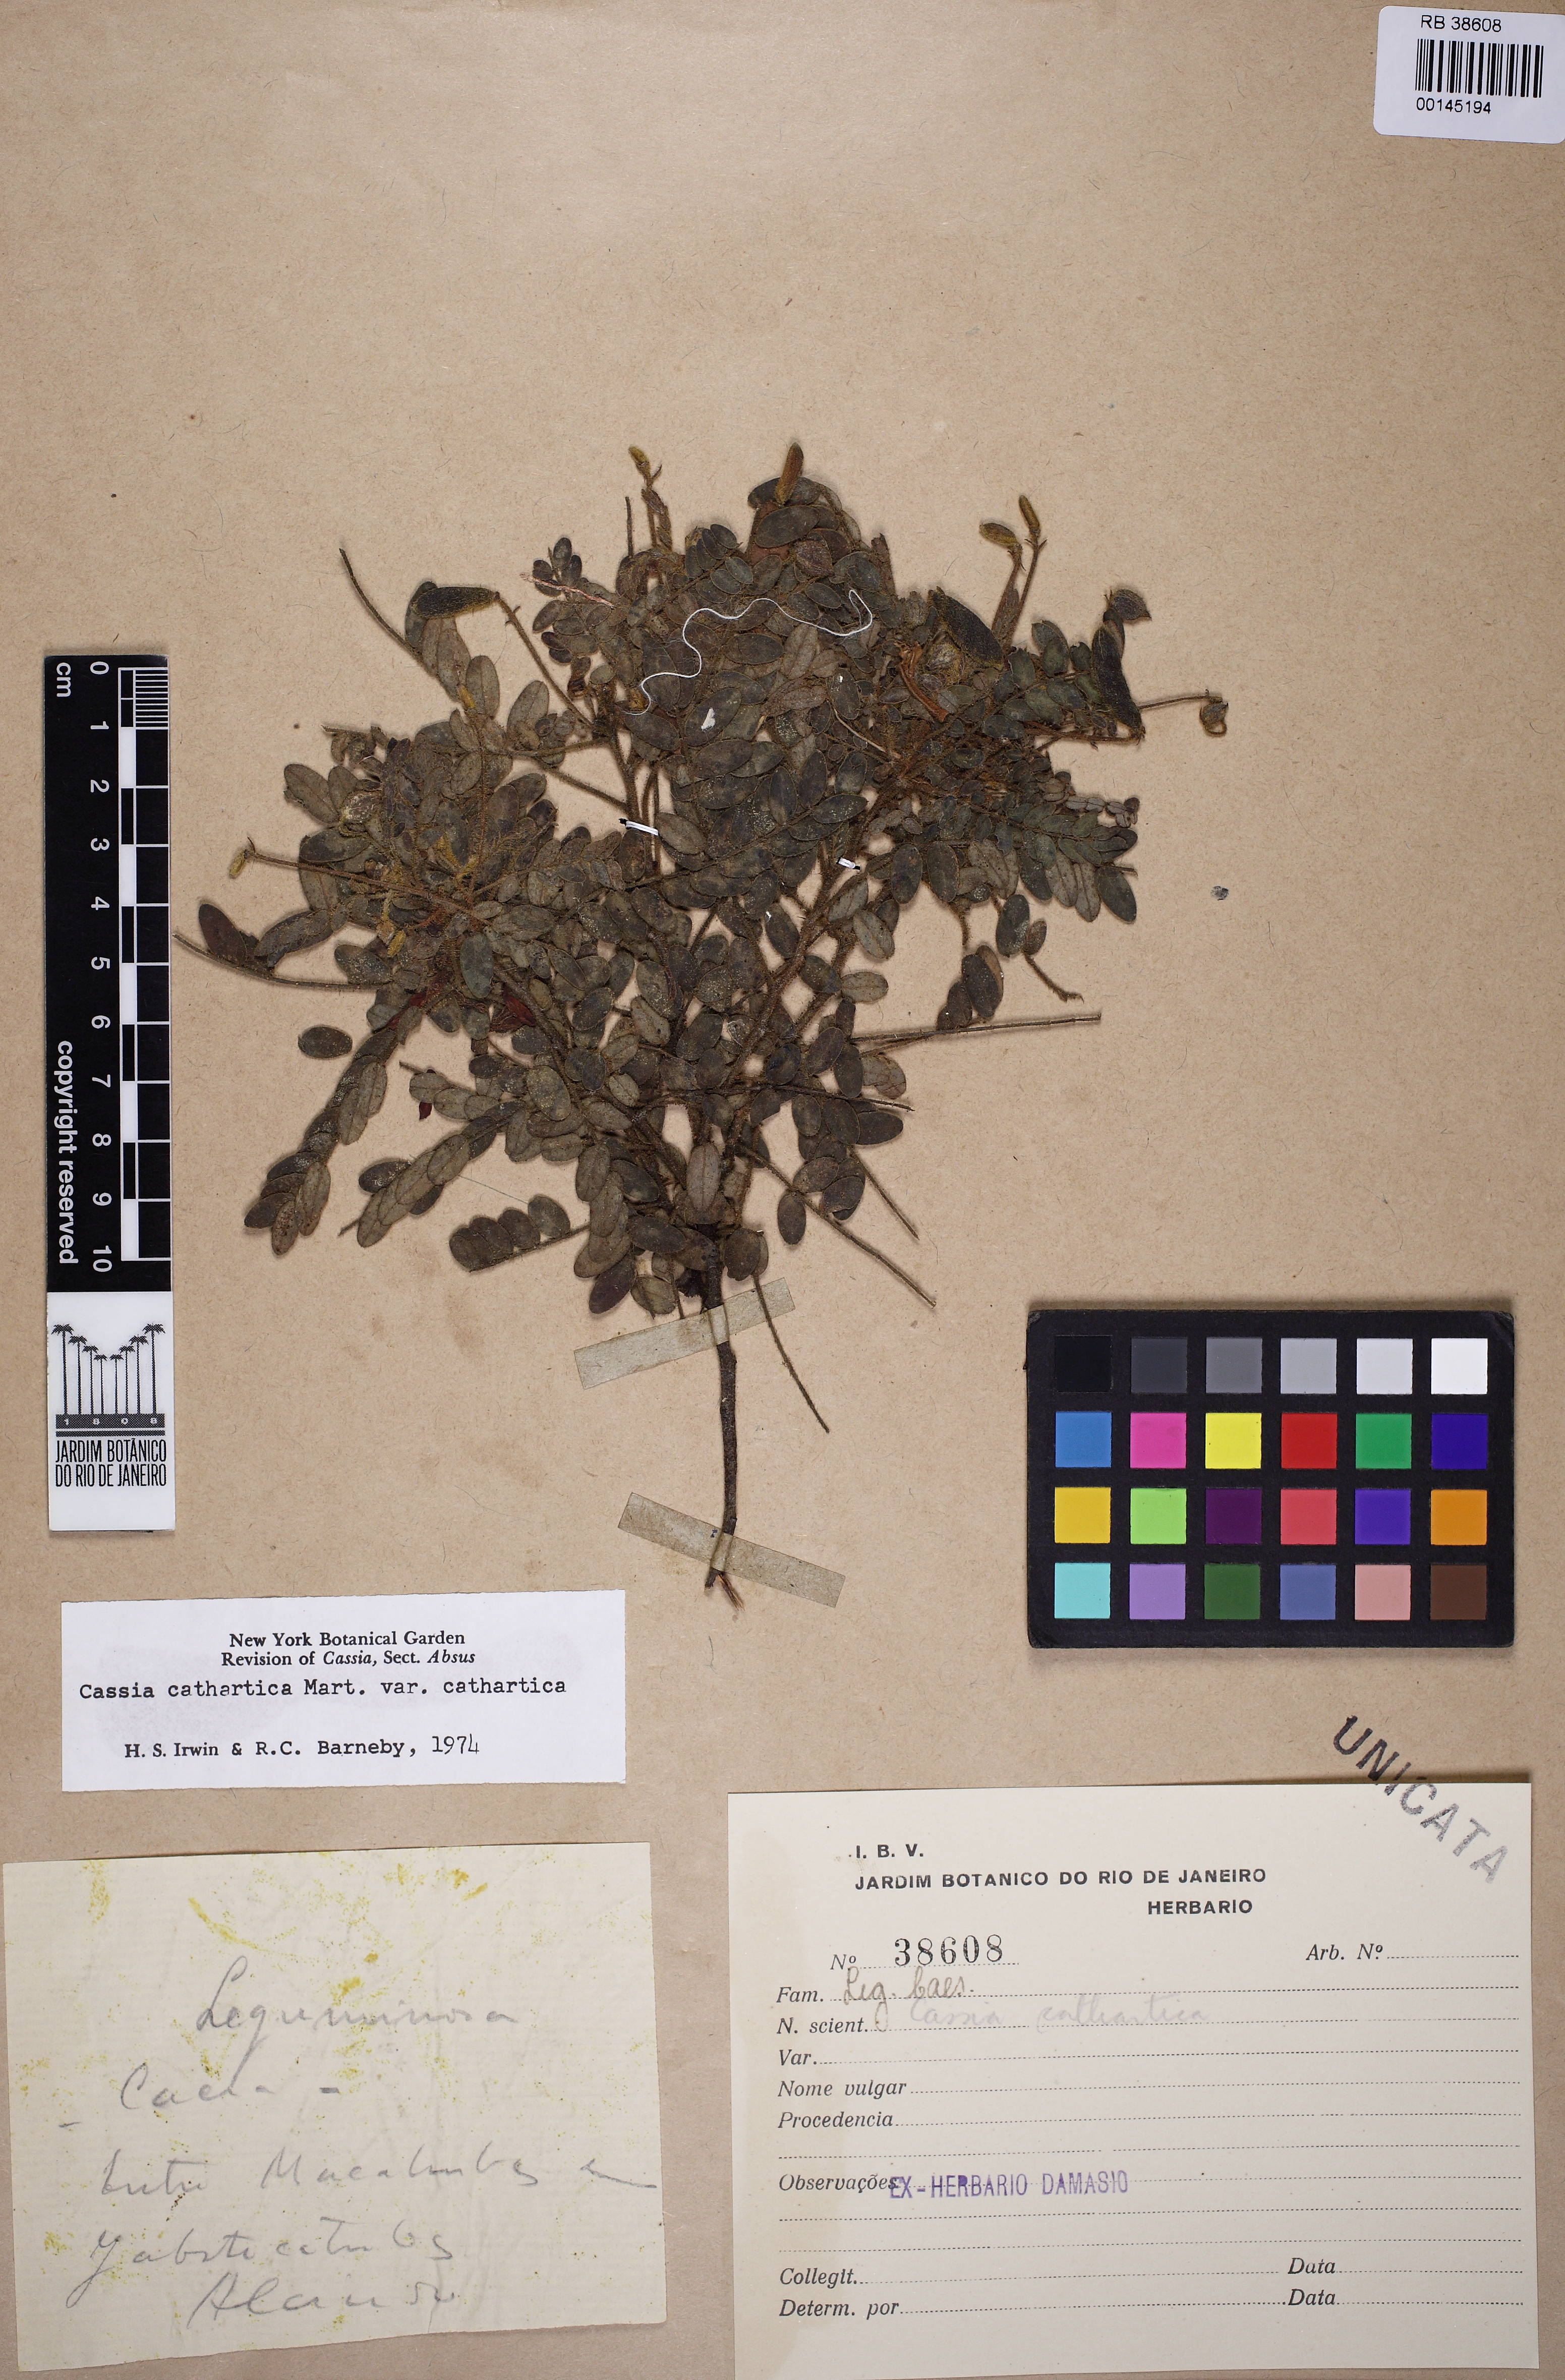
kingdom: Plantae
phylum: Tracheophyta
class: Magnoliopsida
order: Fabales
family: Fabaceae
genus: Chamaecrista
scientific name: Chamaecrista cathartica
